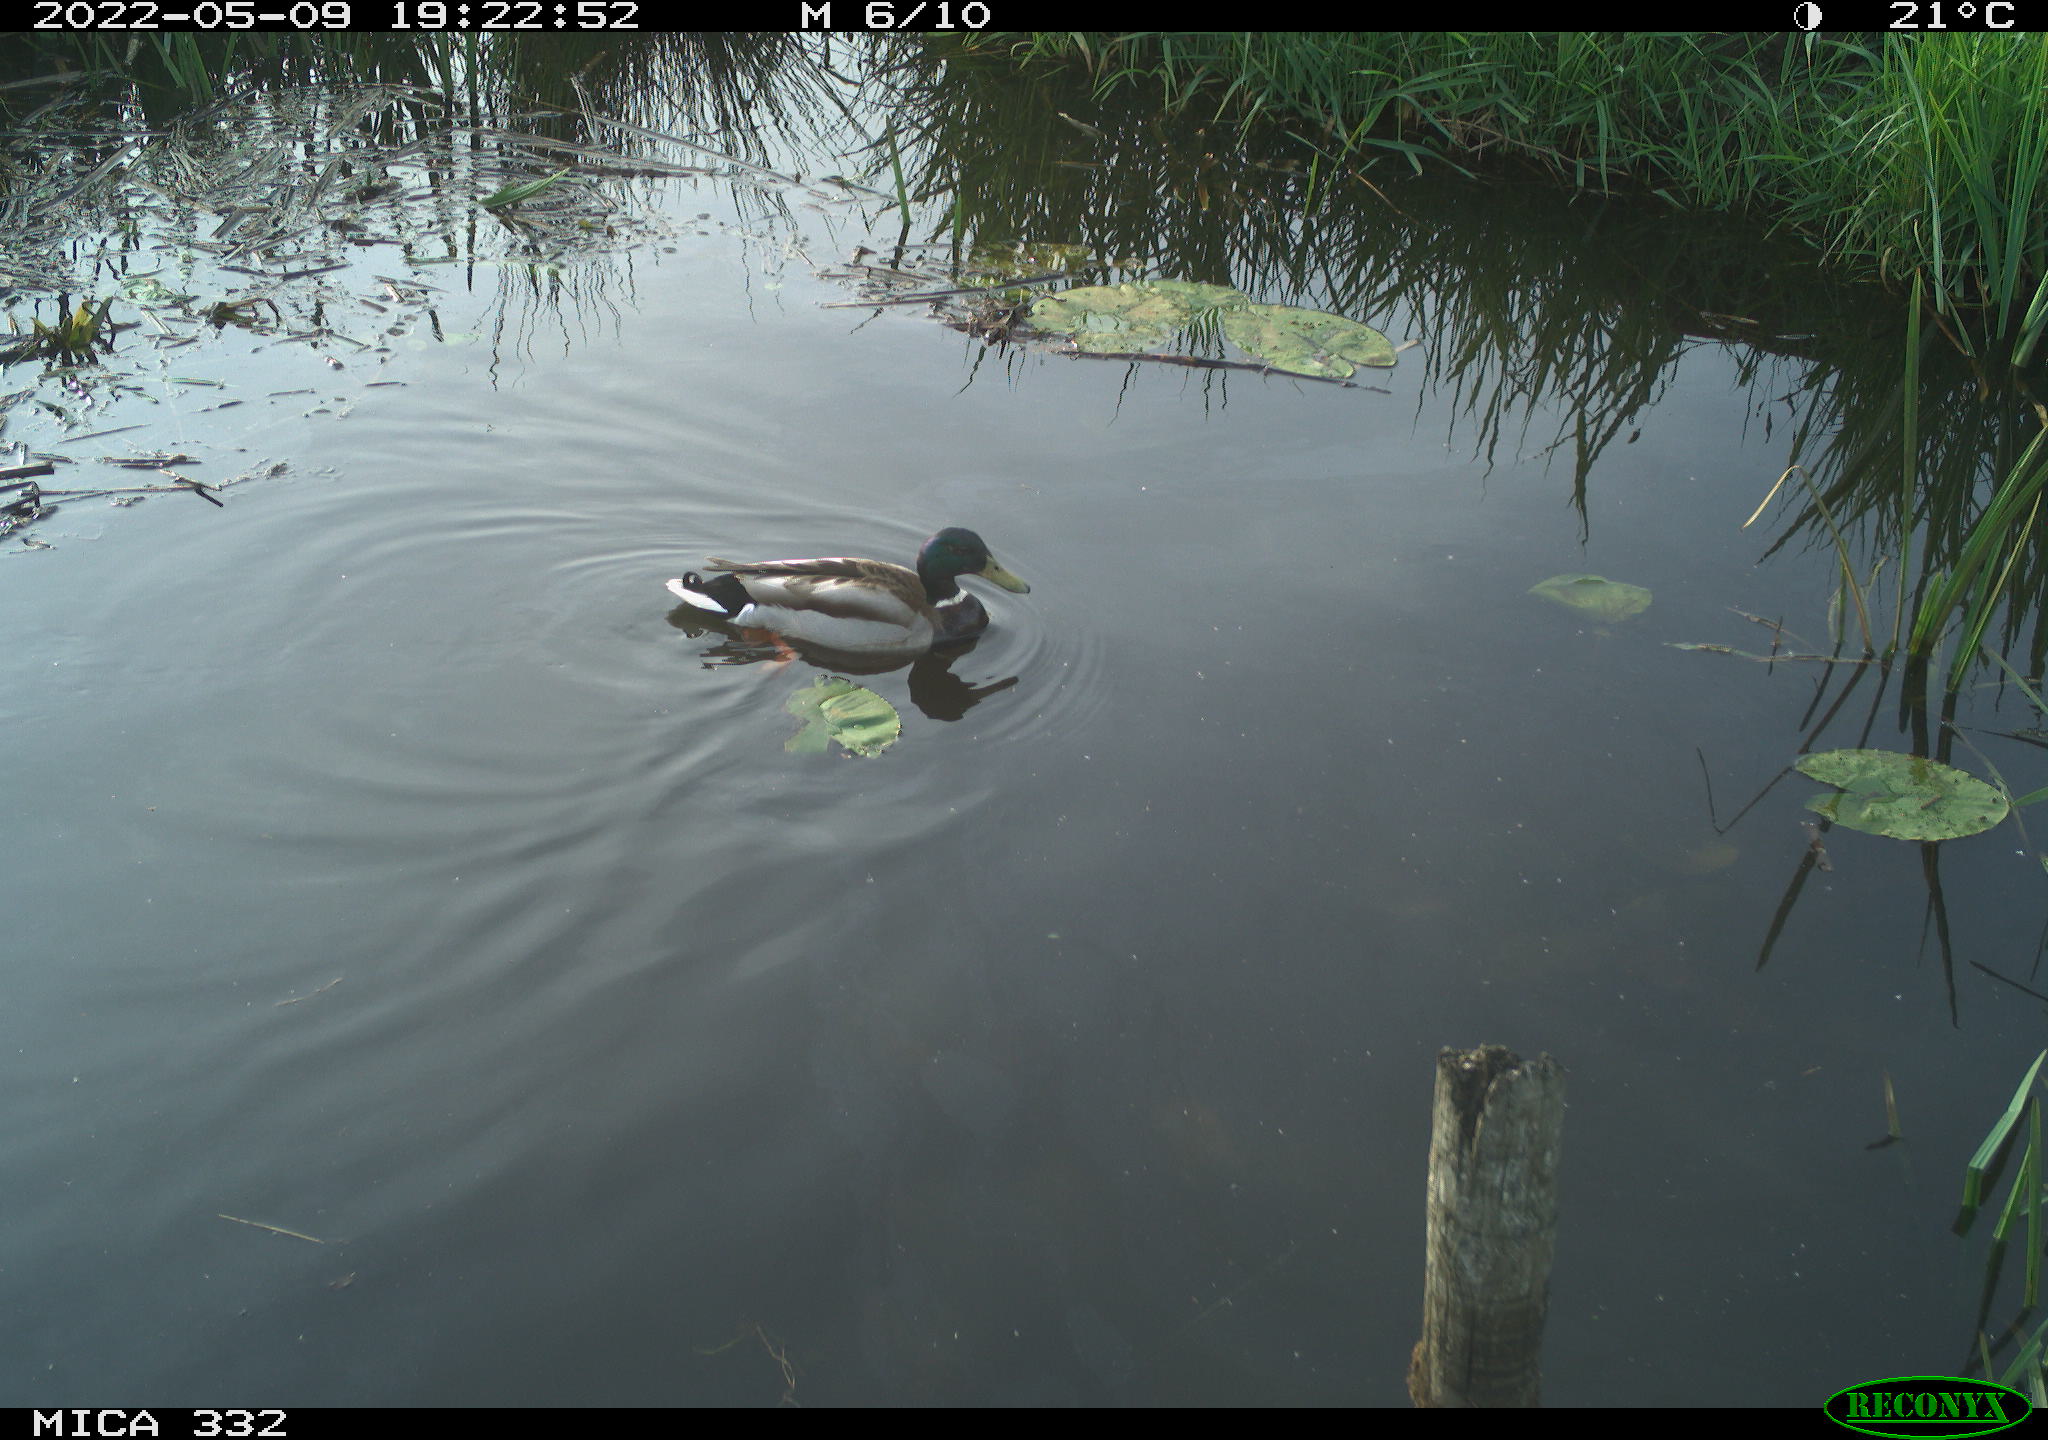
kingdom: Animalia
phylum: Chordata
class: Aves
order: Anseriformes
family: Anatidae
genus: Anas
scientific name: Anas platyrhynchos
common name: Mallard
